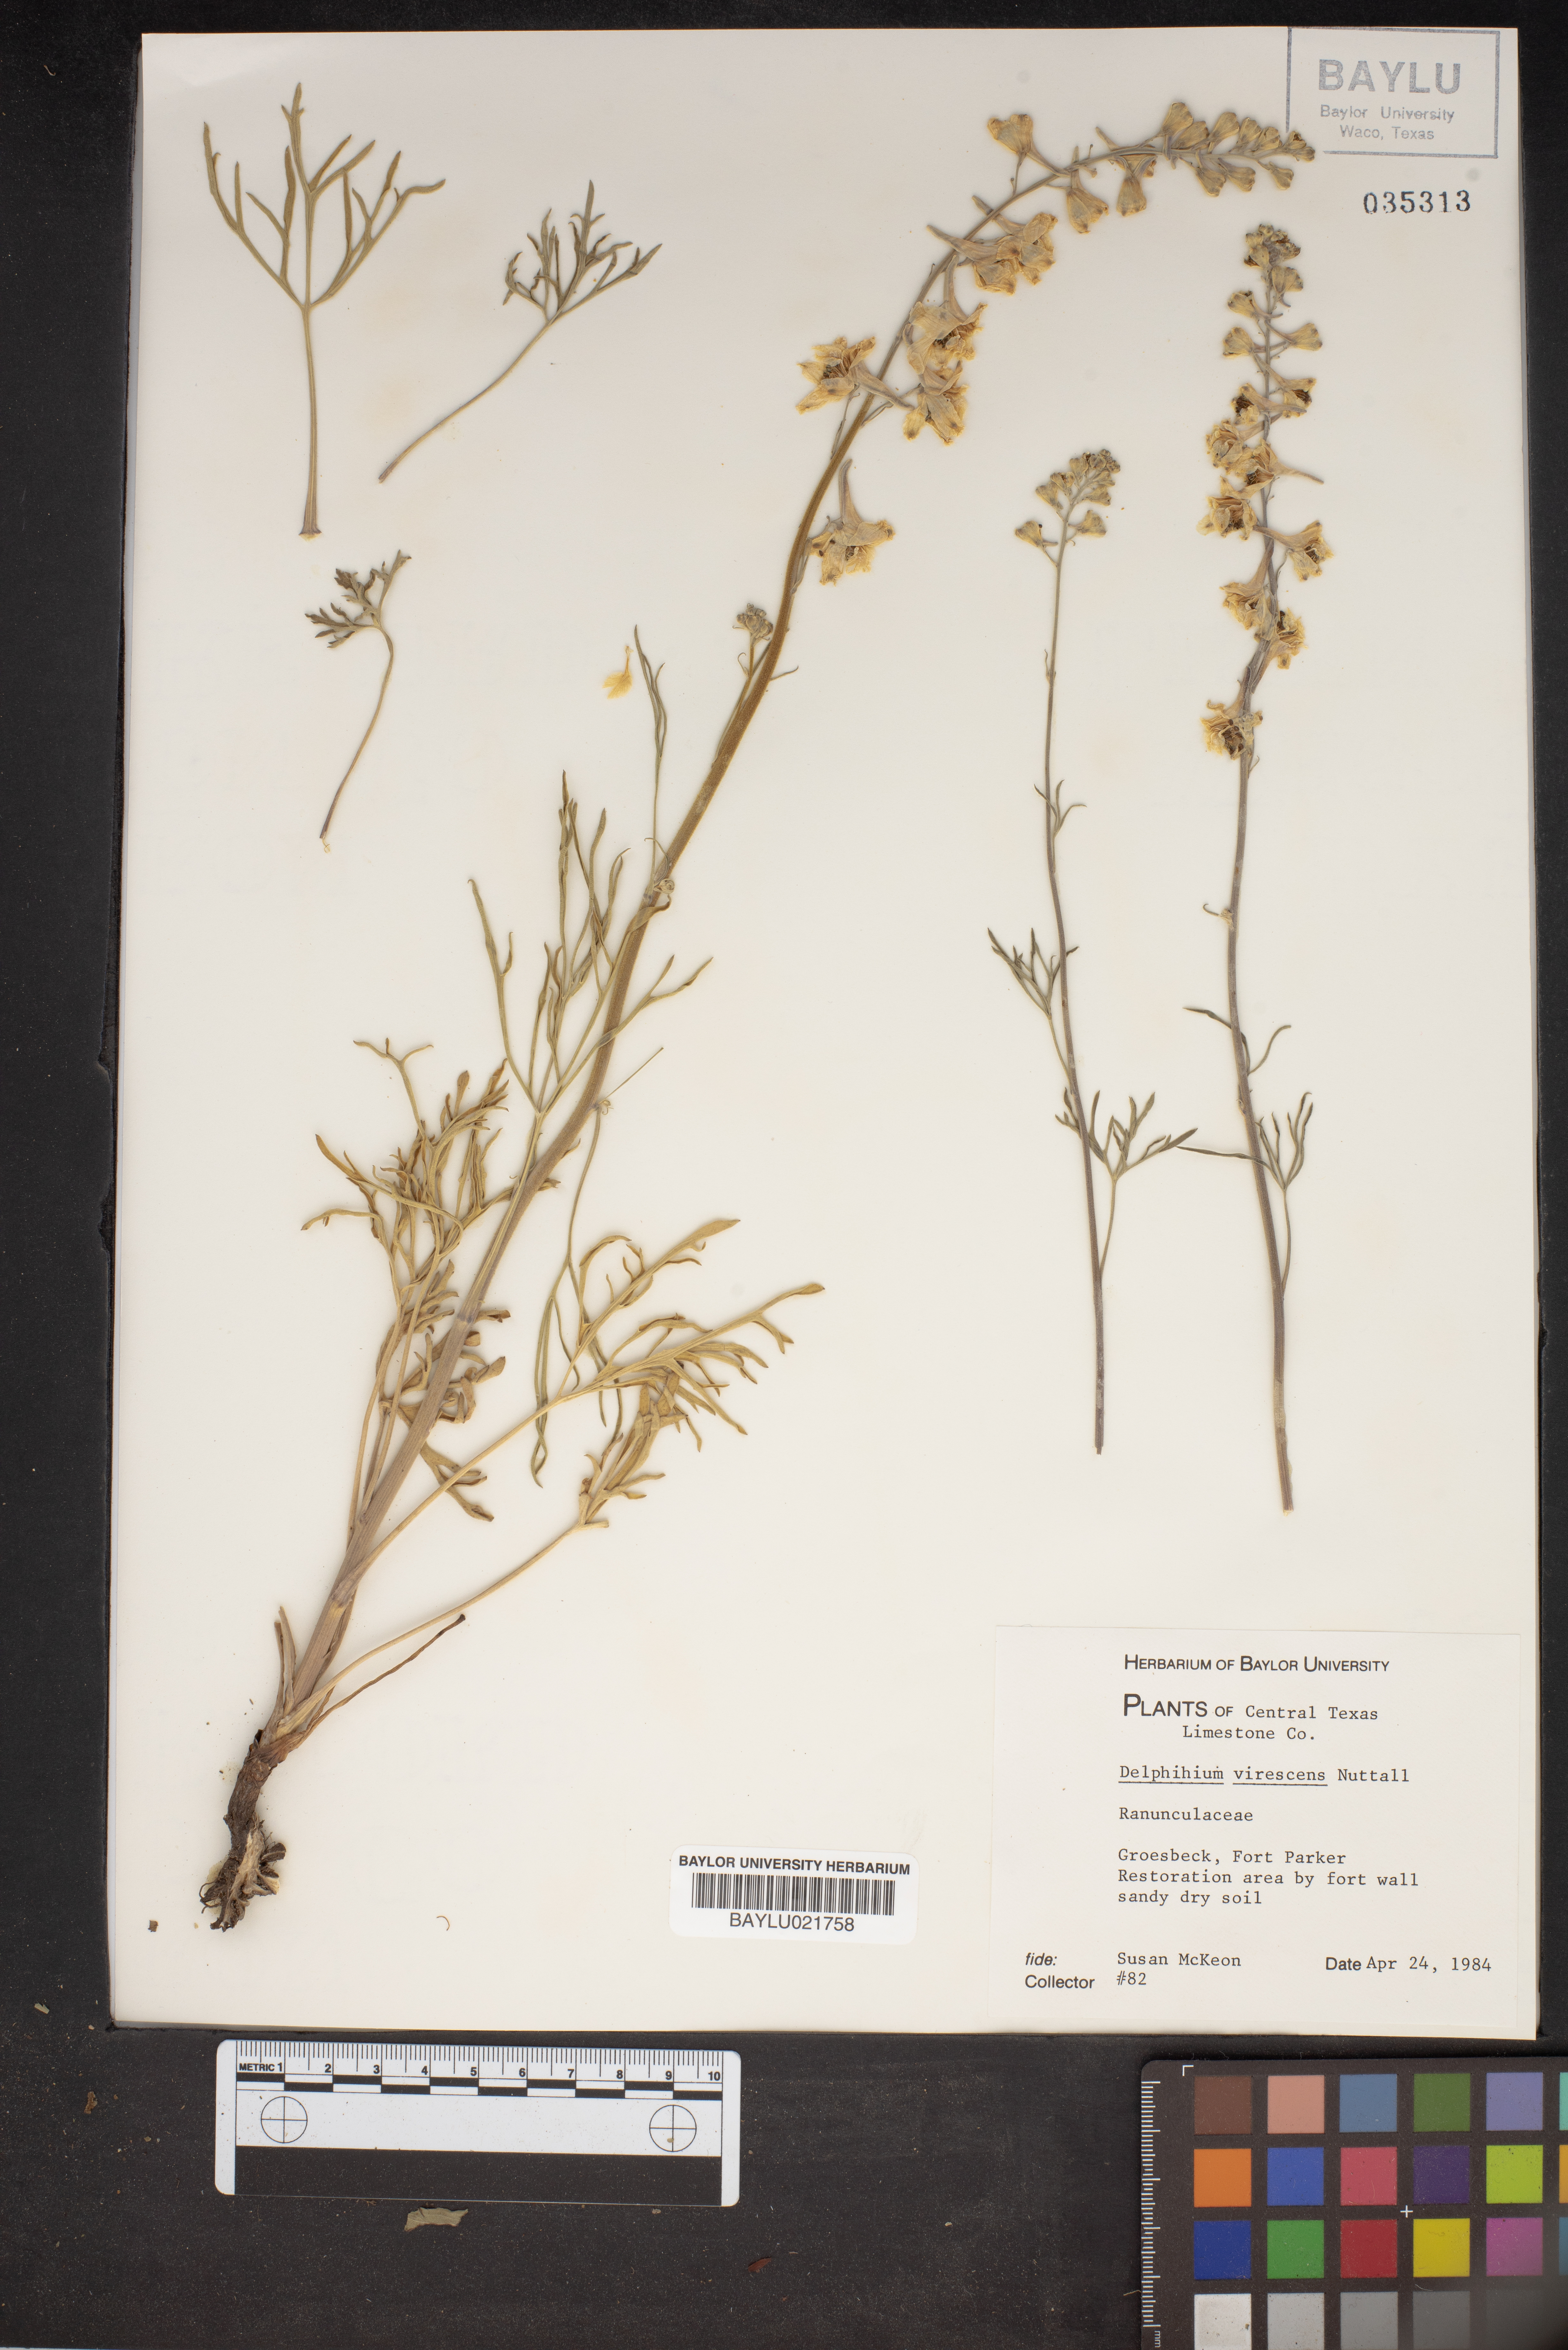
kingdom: Plantae
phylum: Tracheophyta
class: Magnoliopsida
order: Ranunculales
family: Ranunculaceae
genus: Delphinium
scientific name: Delphinium carolinianum
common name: Carolina larkspur
